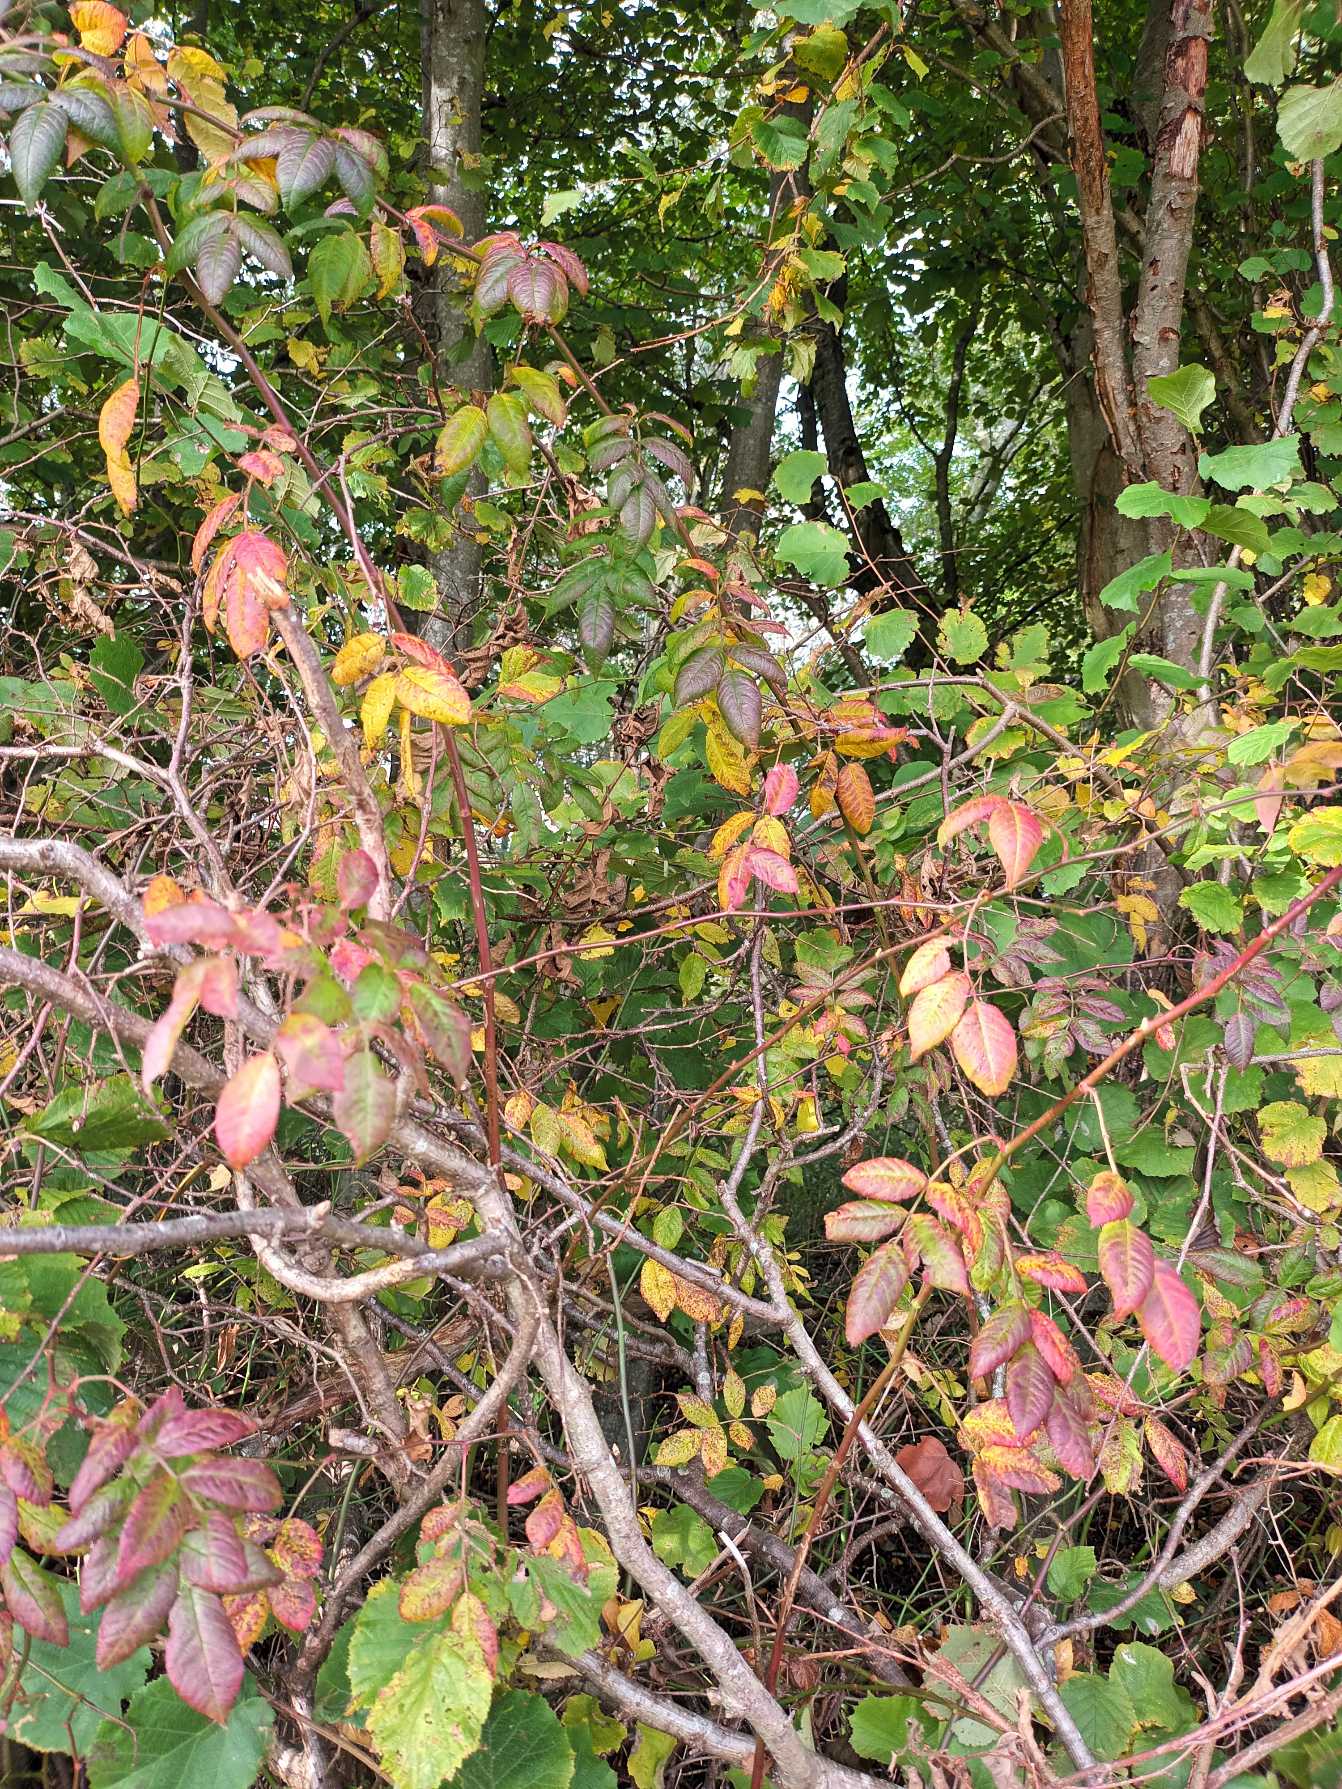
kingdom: Plantae
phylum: Tracheophyta
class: Magnoliopsida
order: Rosales
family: Rosaceae
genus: Rosa
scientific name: Rosa multiflora
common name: Mangeblomstret rose
